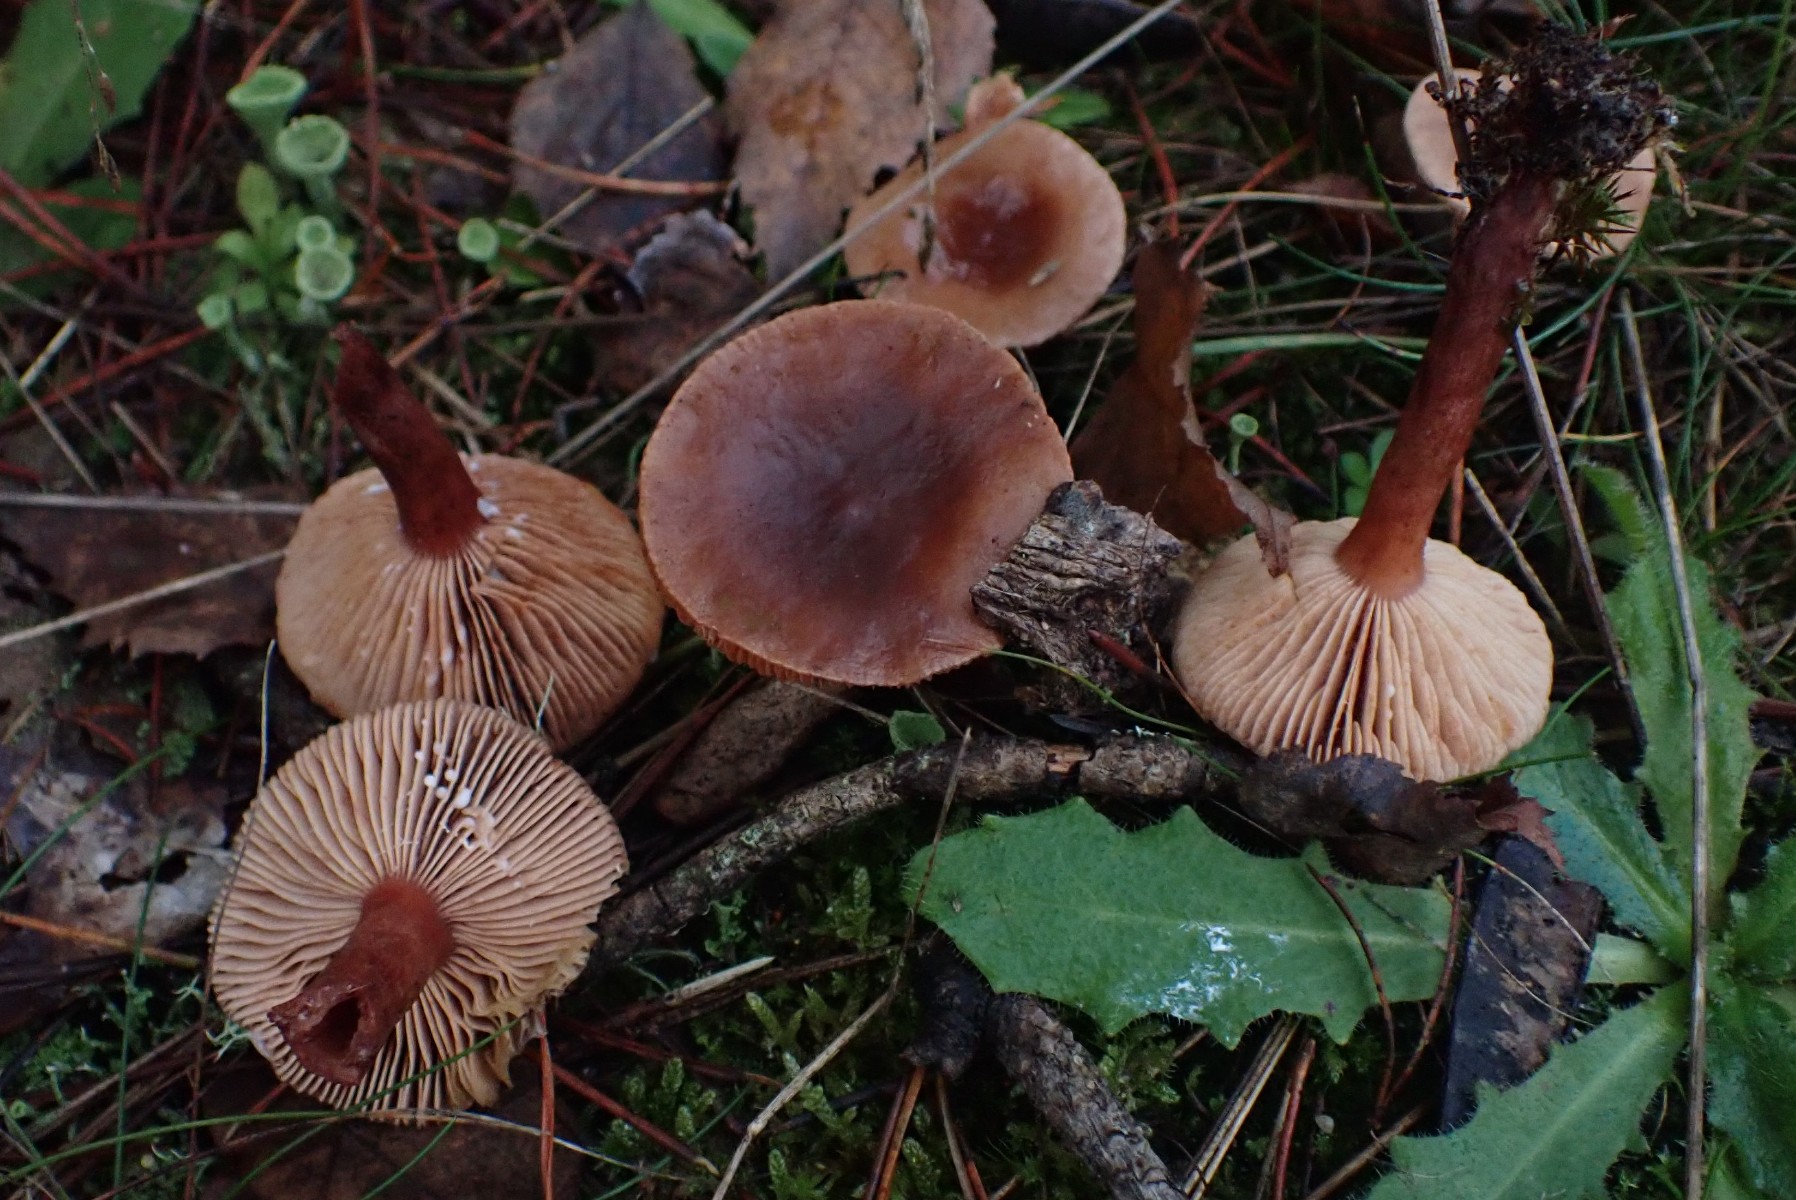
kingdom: Fungi
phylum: Basidiomycota
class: Agaricomycetes
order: Russulales
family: Russulaceae
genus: Lactarius
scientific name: Lactarius hepaticus
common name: leverbrun mælkehat
